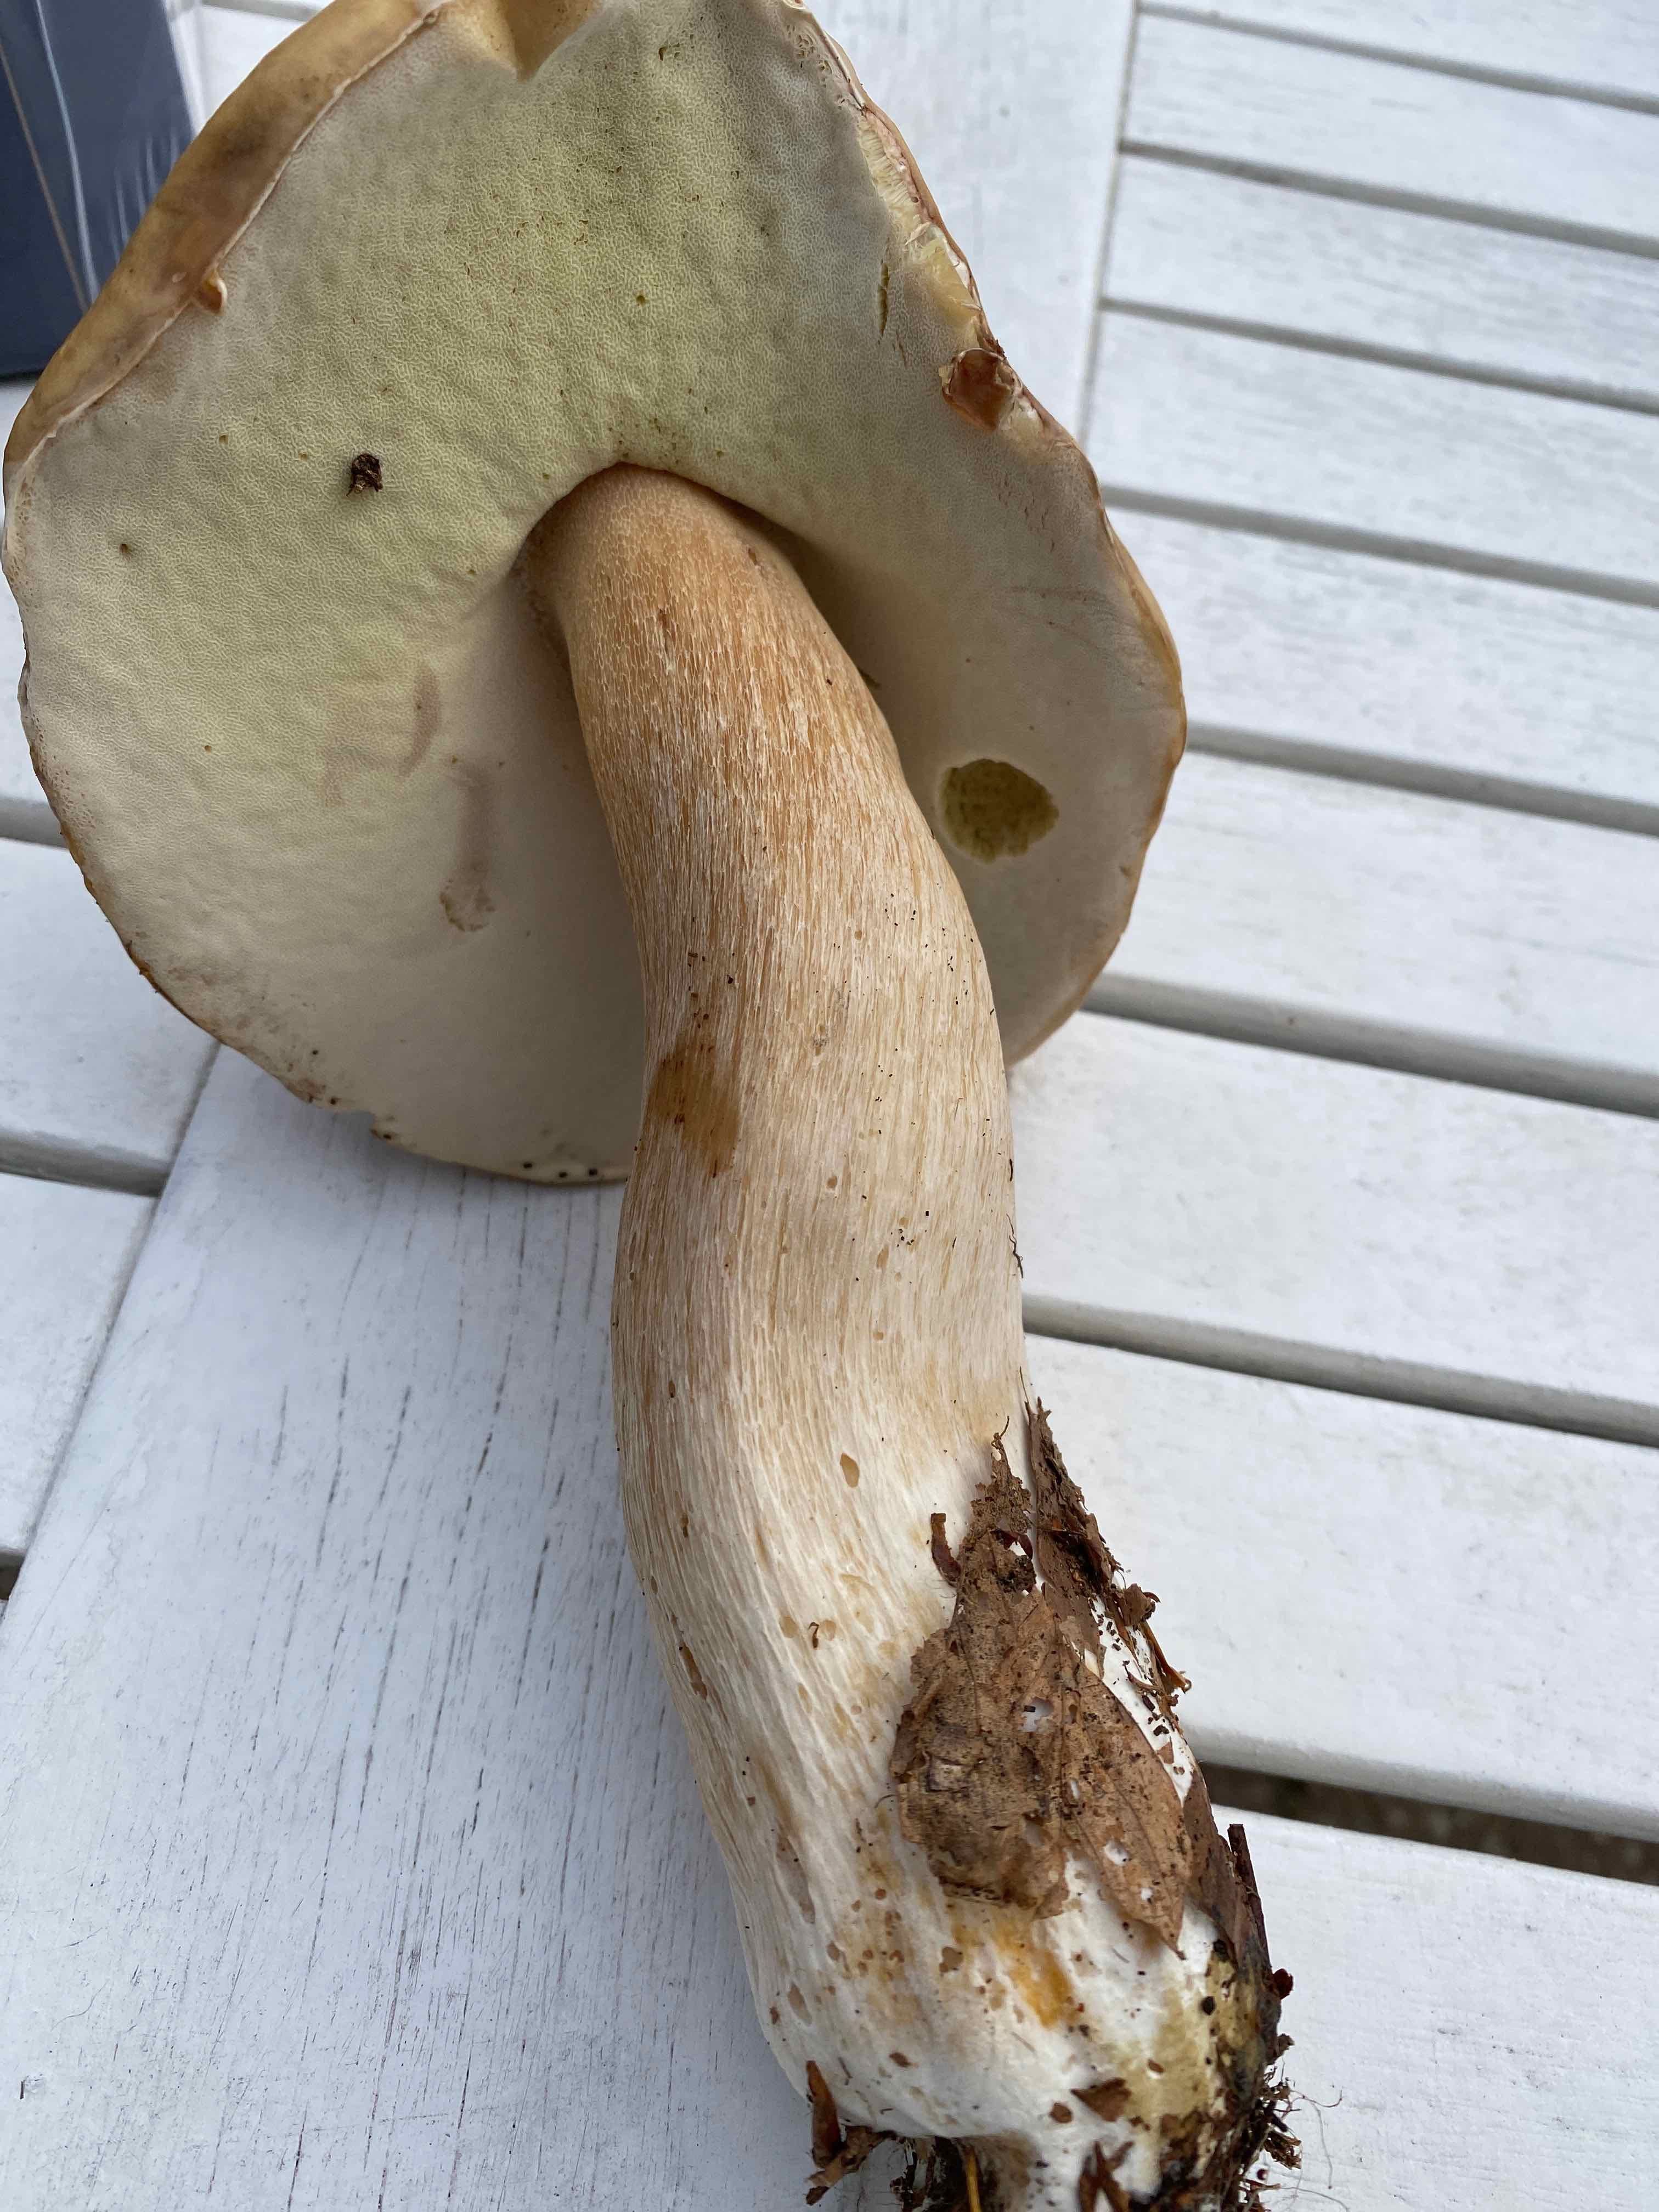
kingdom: Fungi
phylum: Basidiomycota
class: Agaricomycetes
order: Boletales
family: Boletaceae
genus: Boletus
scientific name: Boletus edulis
